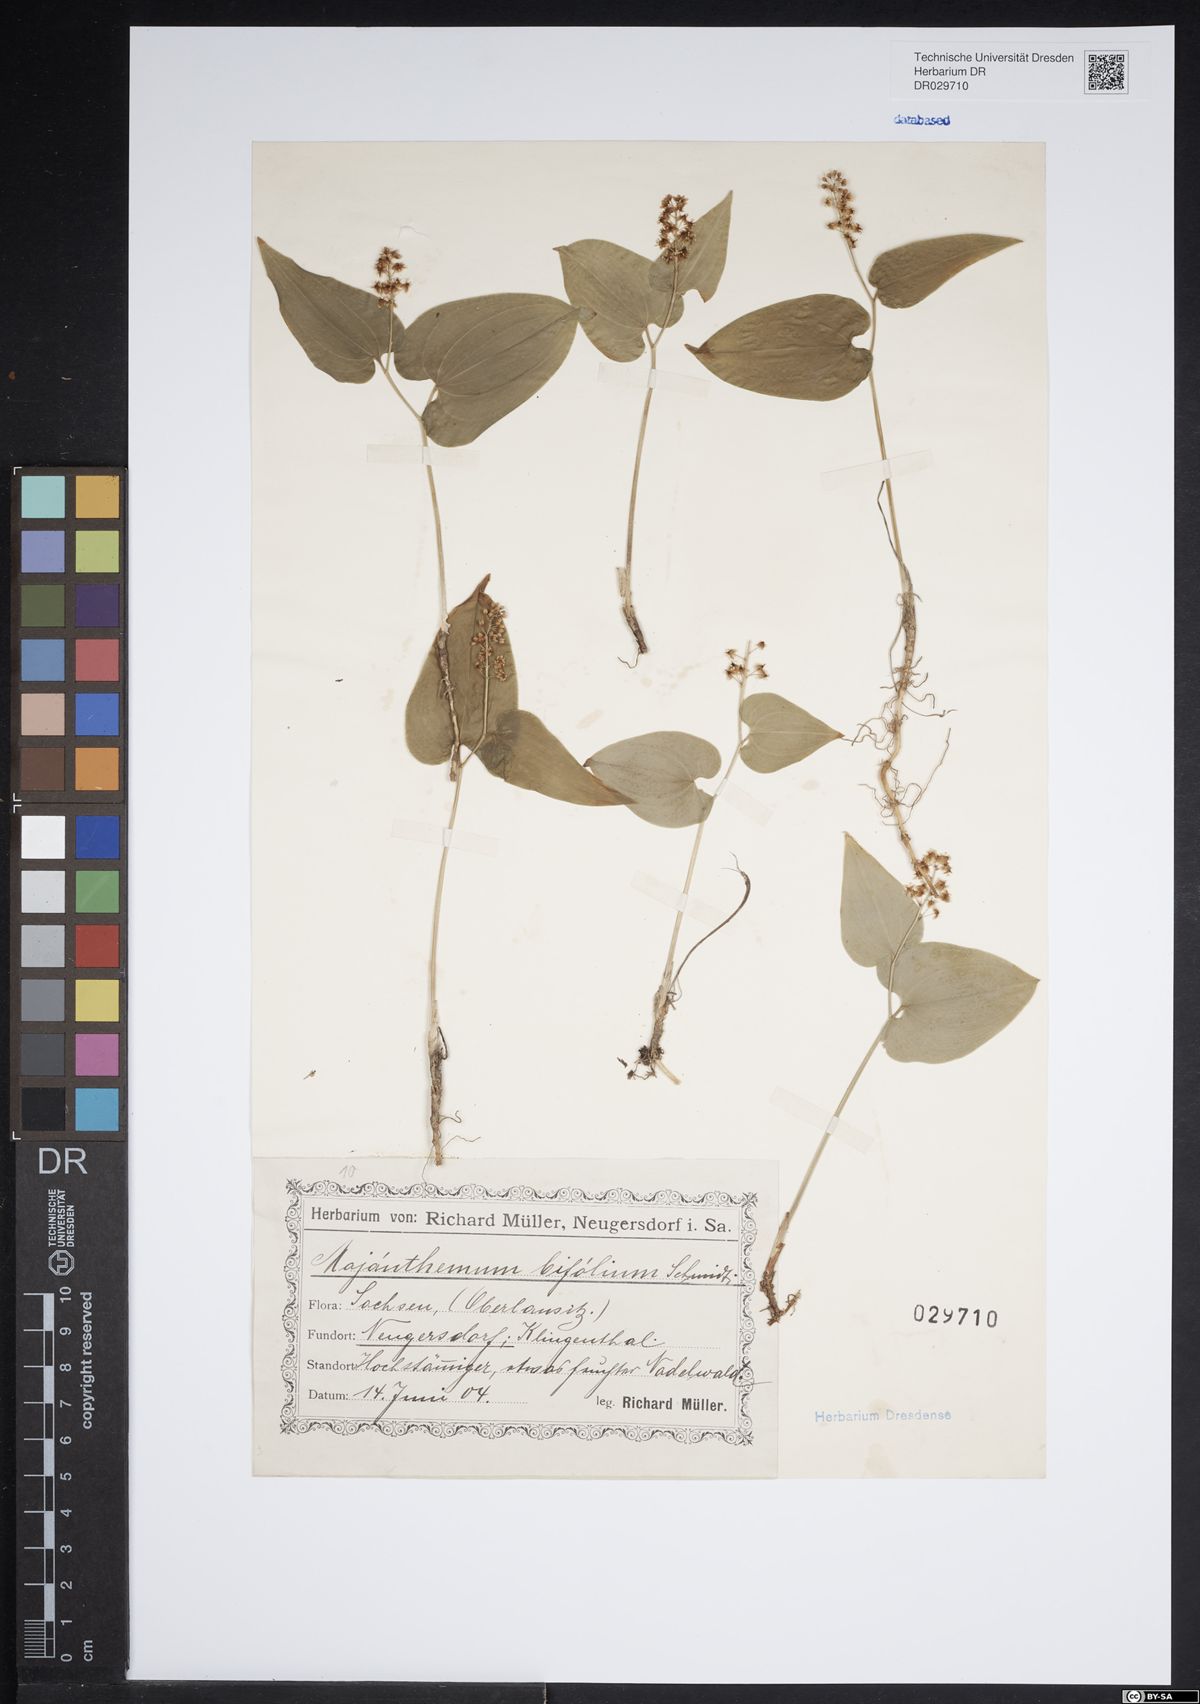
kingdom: Plantae
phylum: Tracheophyta
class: Liliopsida
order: Asparagales
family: Asparagaceae
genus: Maianthemum
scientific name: Maianthemum bifolium
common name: May lily
